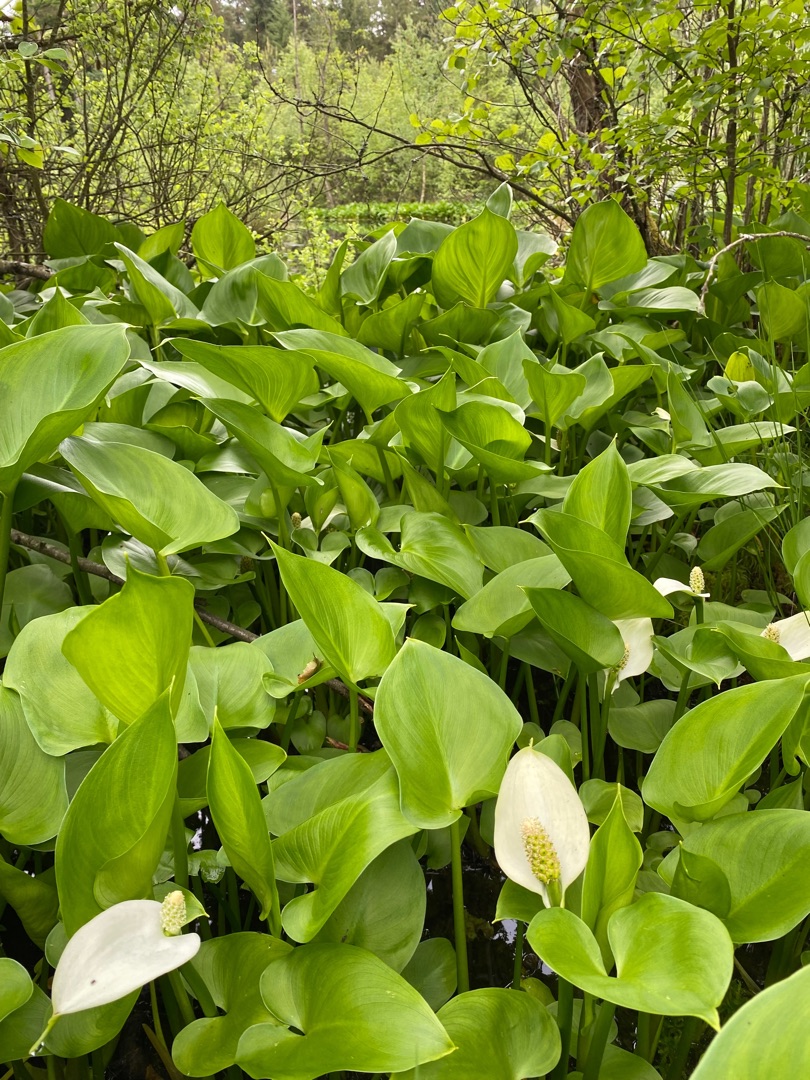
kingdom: Plantae
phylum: Tracheophyta
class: Liliopsida
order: Alismatales
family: Araceae
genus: Calla
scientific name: Calla palustris
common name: Kærmysse
